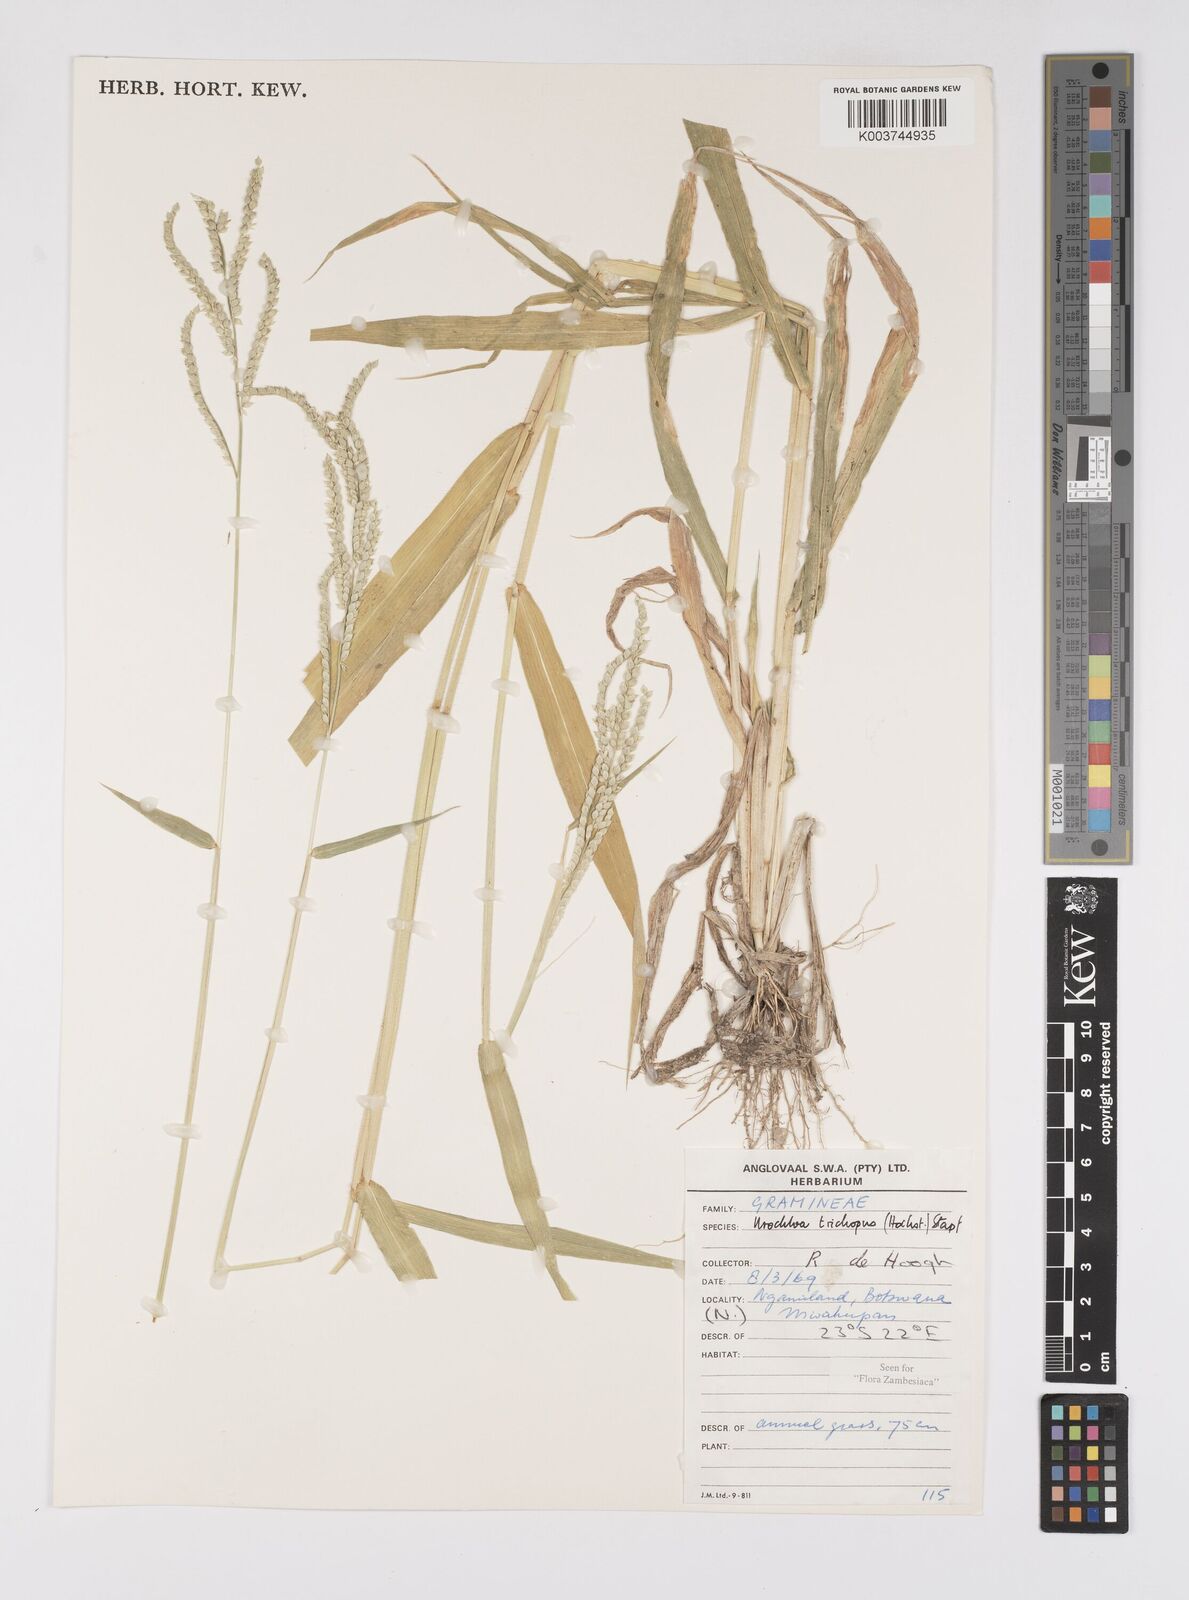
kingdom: Plantae
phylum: Tracheophyta
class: Liliopsida
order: Poales
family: Poaceae
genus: Urochloa
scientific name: Urochloa trichopus
